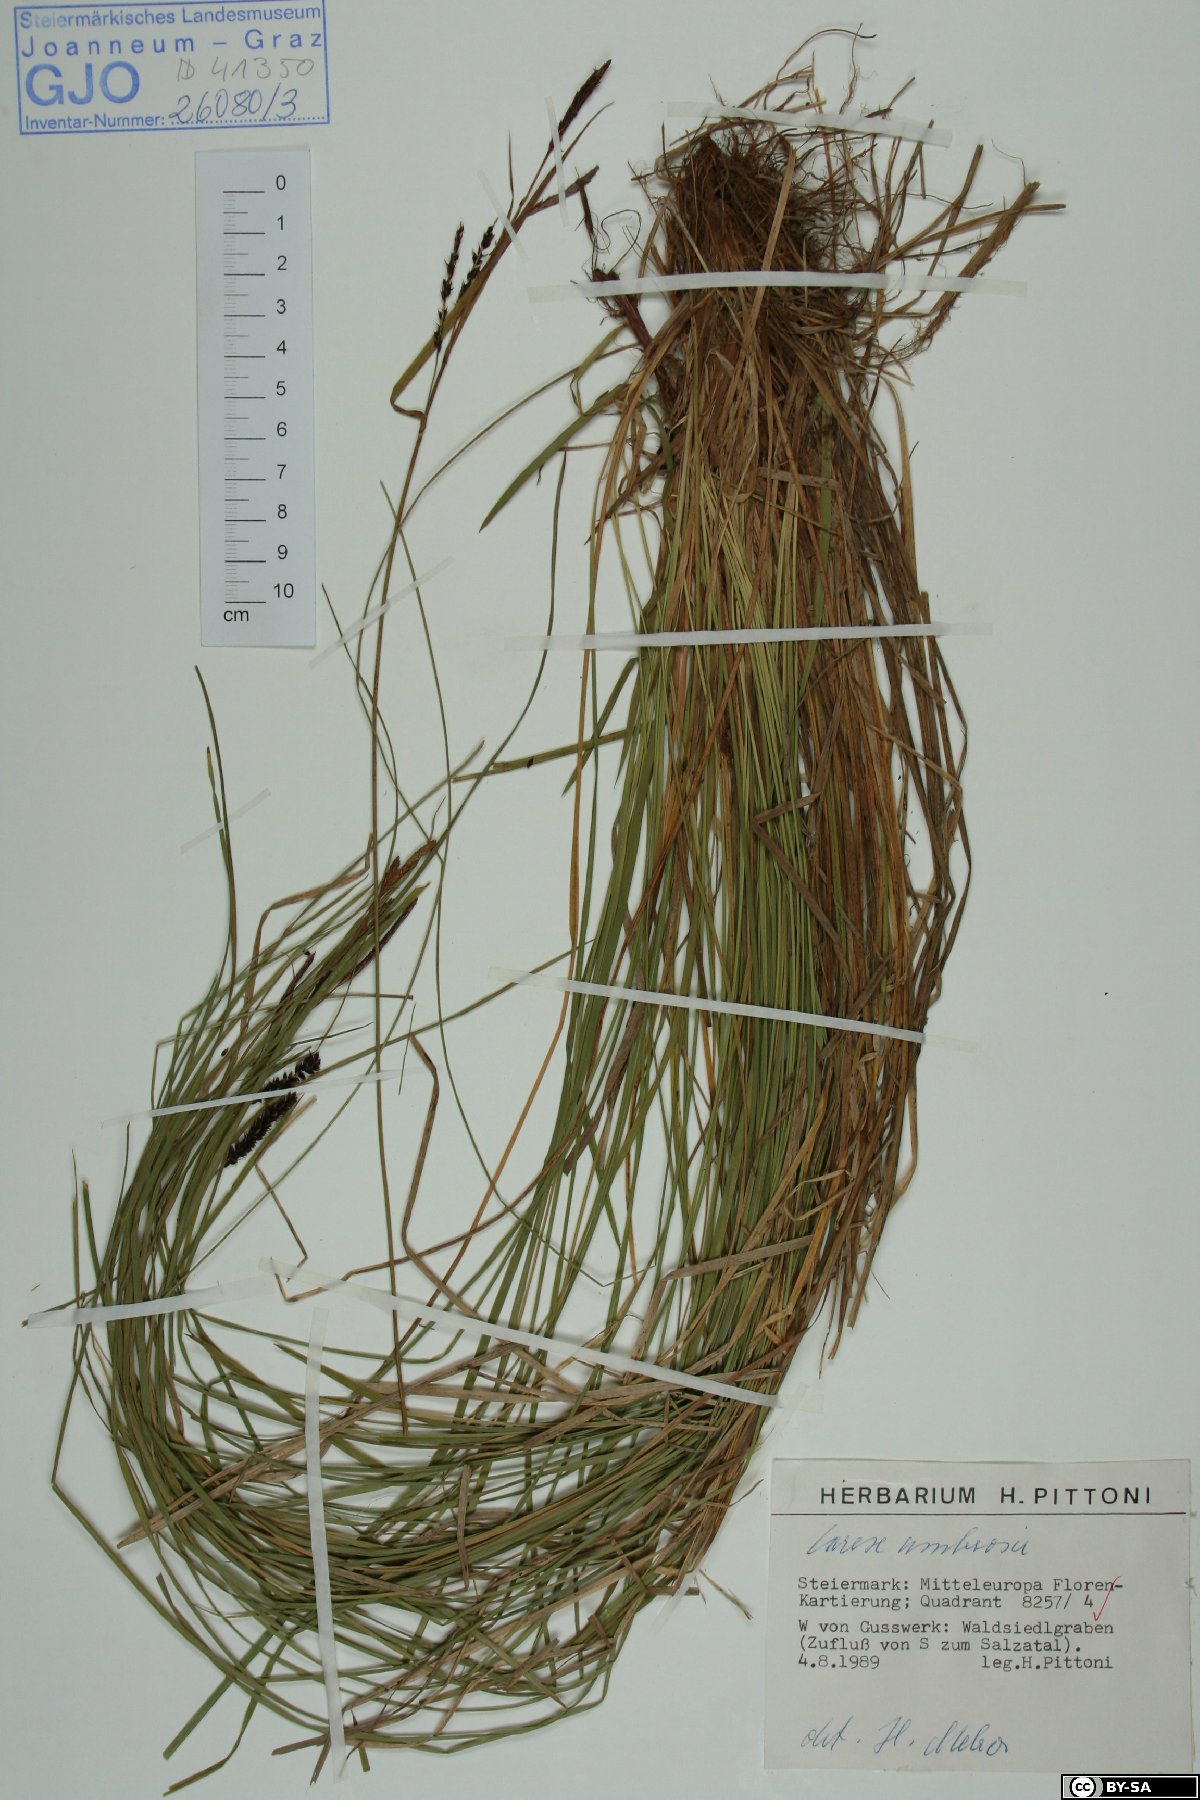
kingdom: Plantae
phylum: Tracheophyta
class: Liliopsida
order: Poales
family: Cyperaceae
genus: Carex
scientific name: Carex umbrosa
